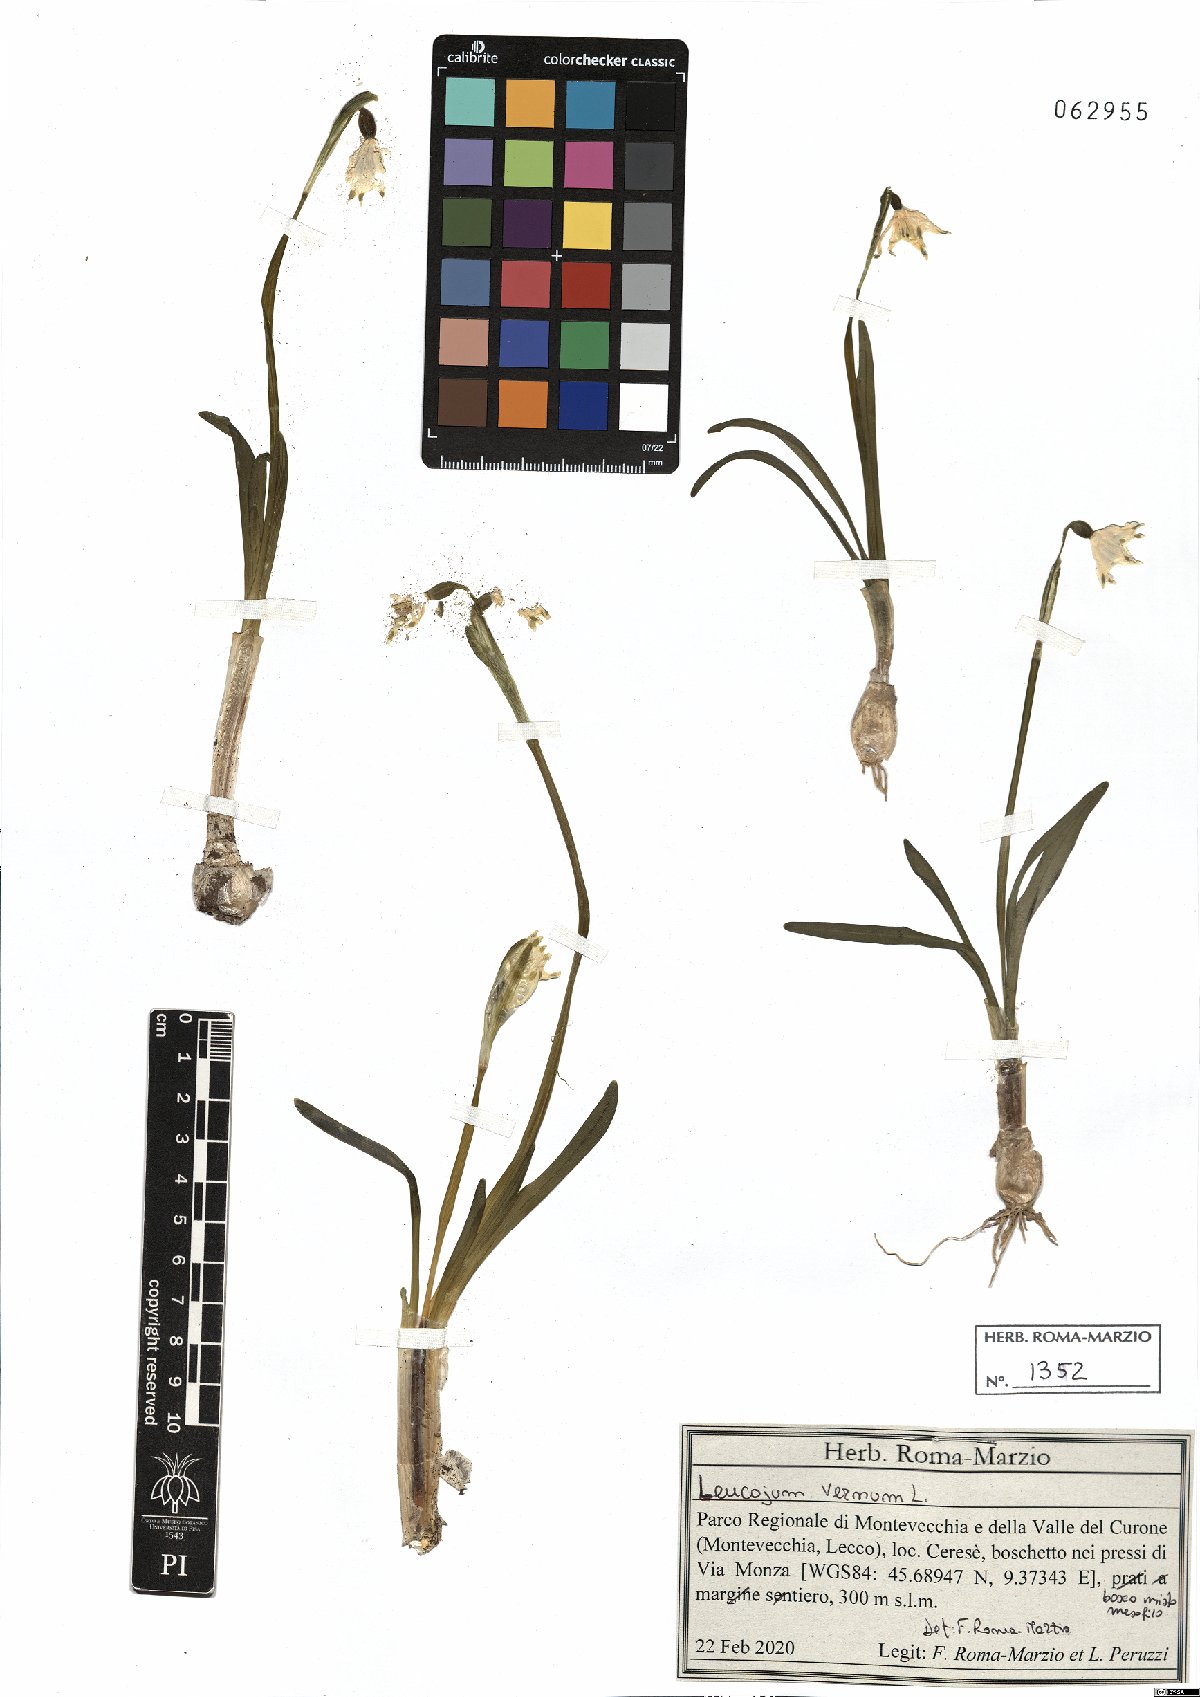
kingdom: Plantae
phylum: Tracheophyta
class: Liliopsida
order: Asparagales
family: Amaryllidaceae
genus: Leucojum
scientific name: Leucojum vernum
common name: Spring snowflake
